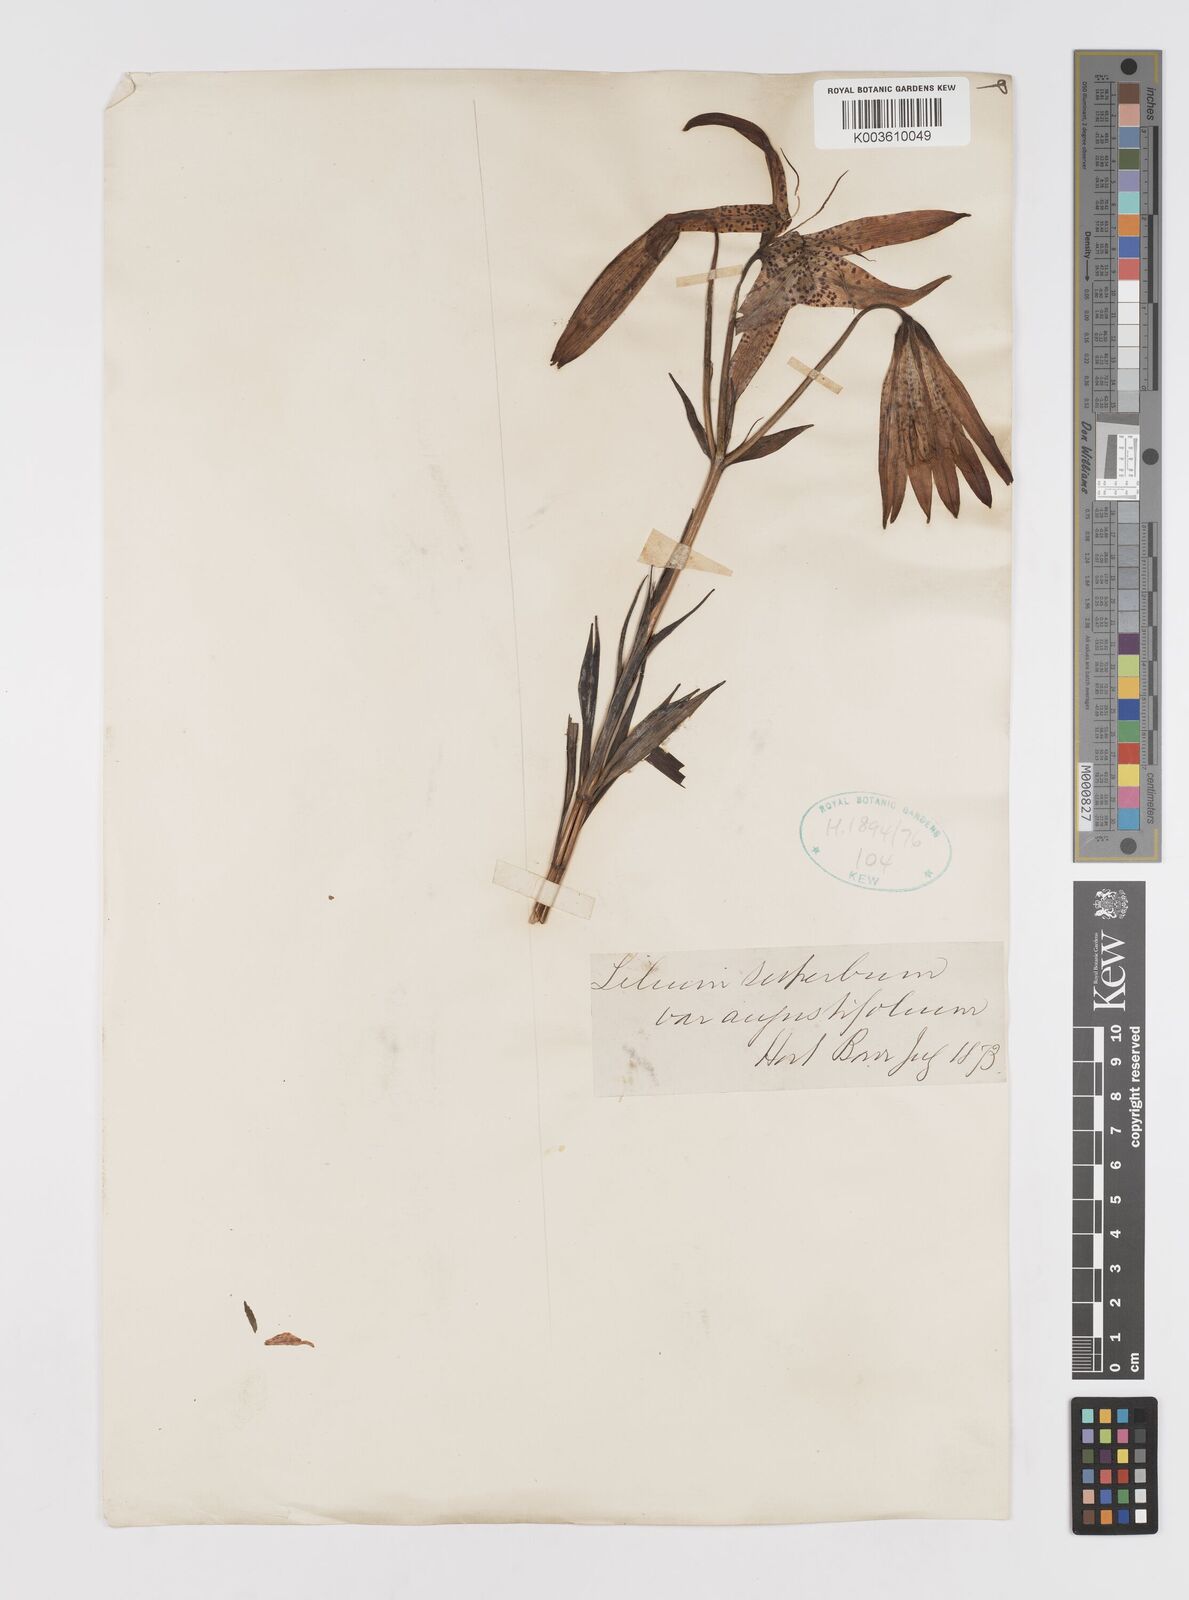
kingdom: Plantae
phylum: Tracheophyta
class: Liliopsida
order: Liliales
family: Liliaceae
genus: Lilium
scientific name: Lilium superbum
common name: American turk's-cap lily
